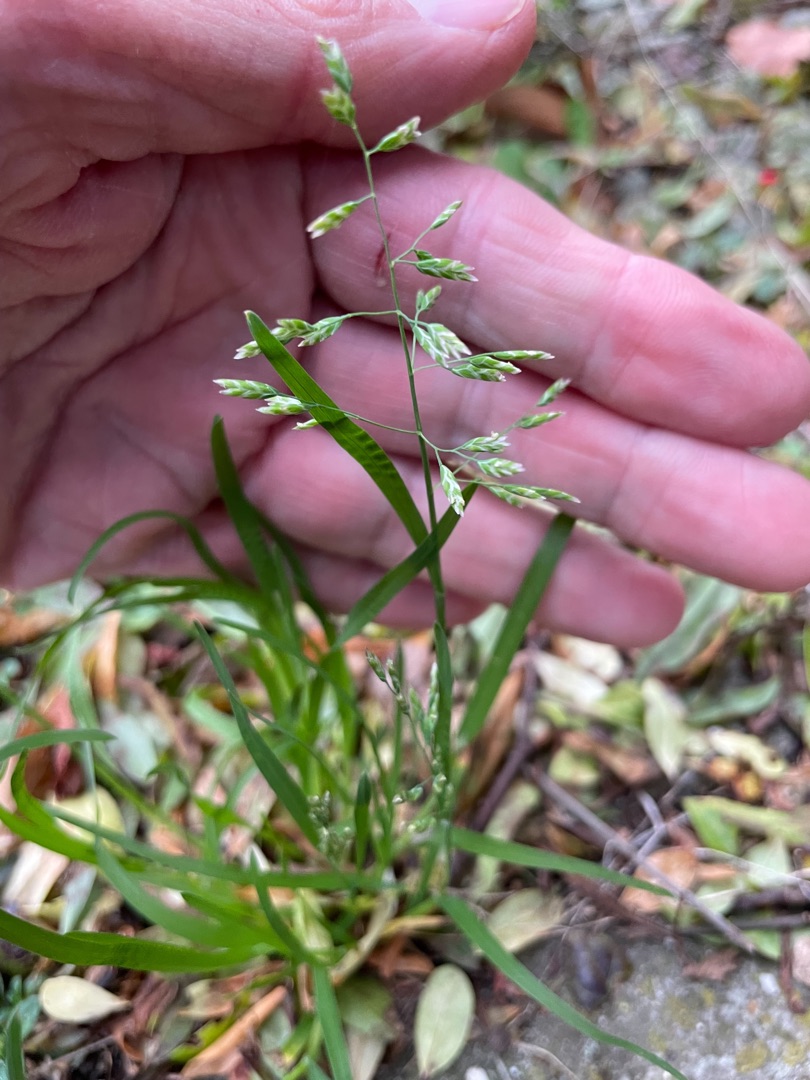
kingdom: Plantae
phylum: Tracheophyta
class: Liliopsida
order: Poales
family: Poaceae
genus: Poa
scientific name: Poa annua
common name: Enårig rapgræs
